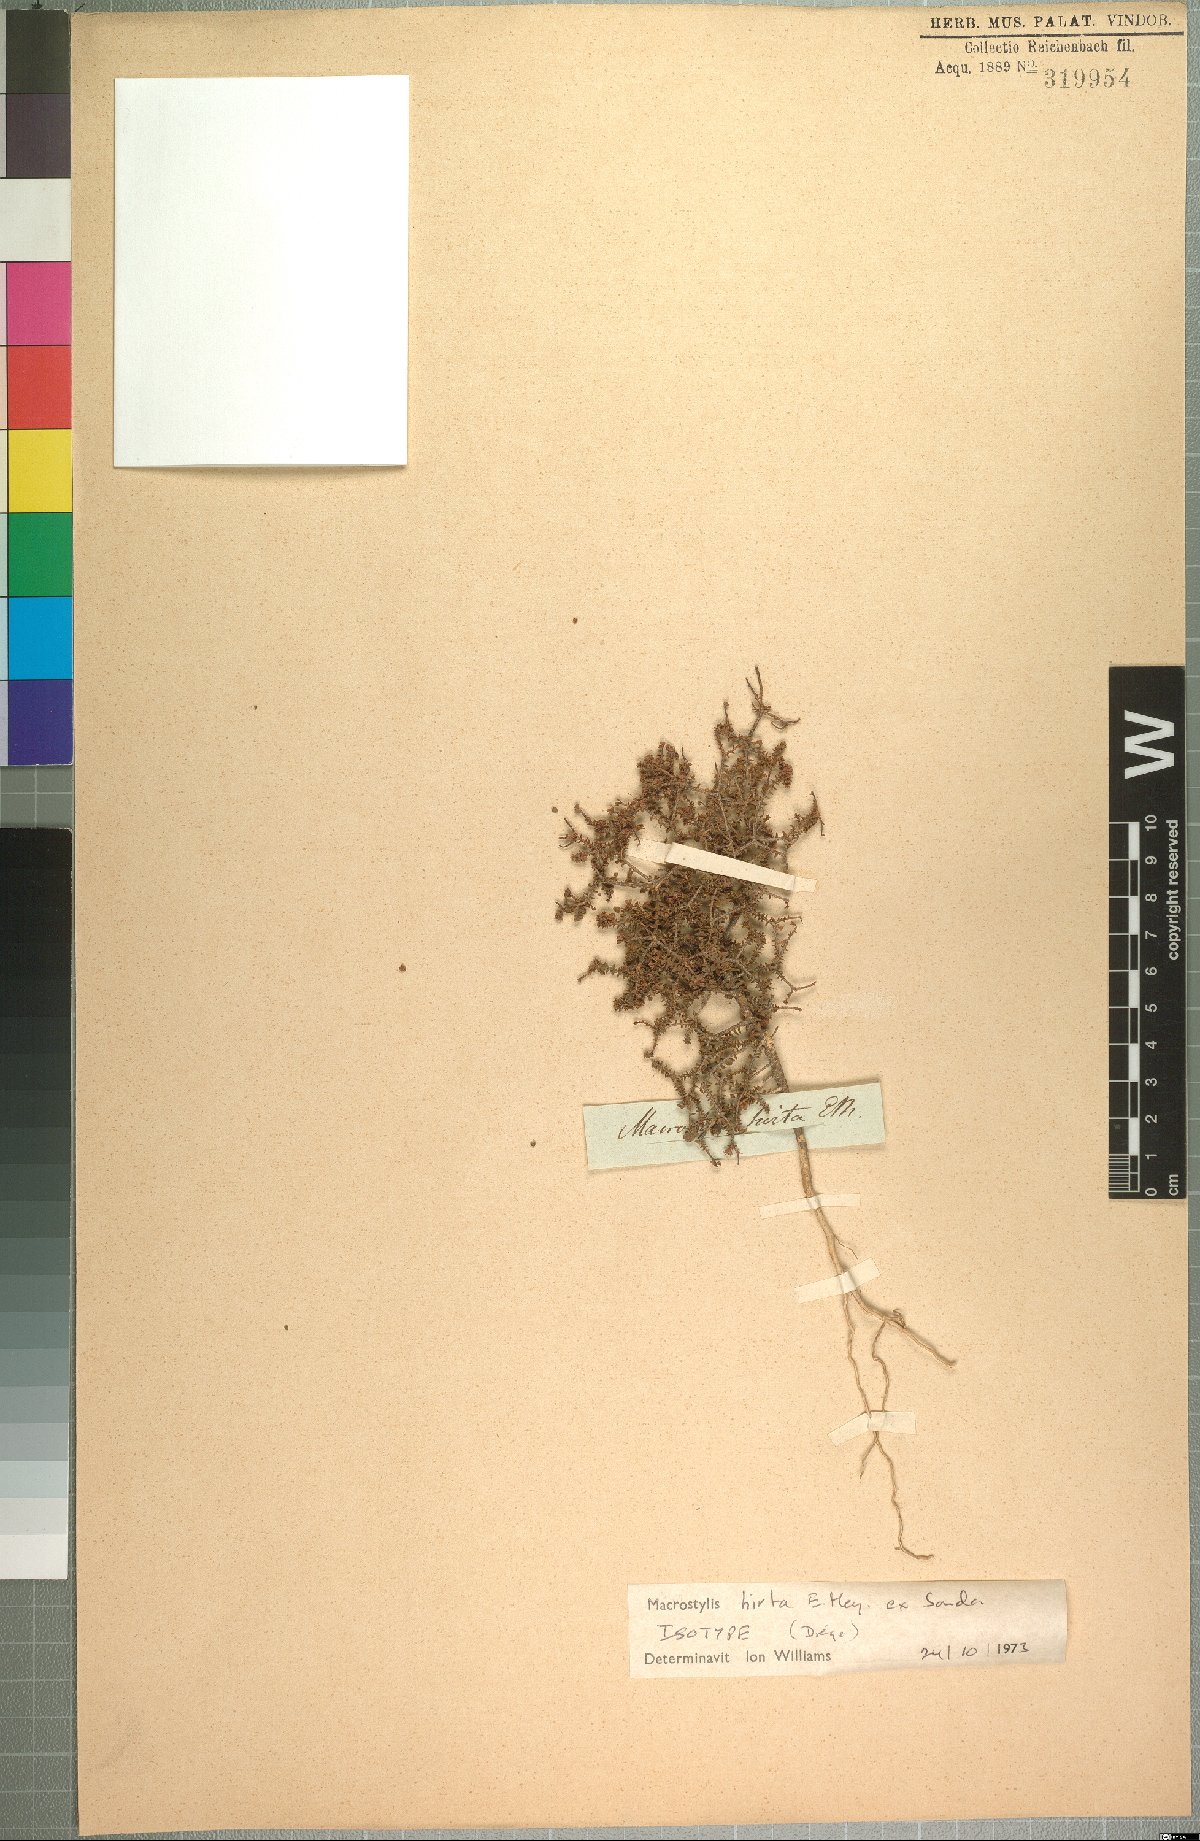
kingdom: Plantae
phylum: Tracheophyta
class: Magnoliopsida
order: Sapindales
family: Rutaceae
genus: Macrostylis
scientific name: Macrostylis hirta
